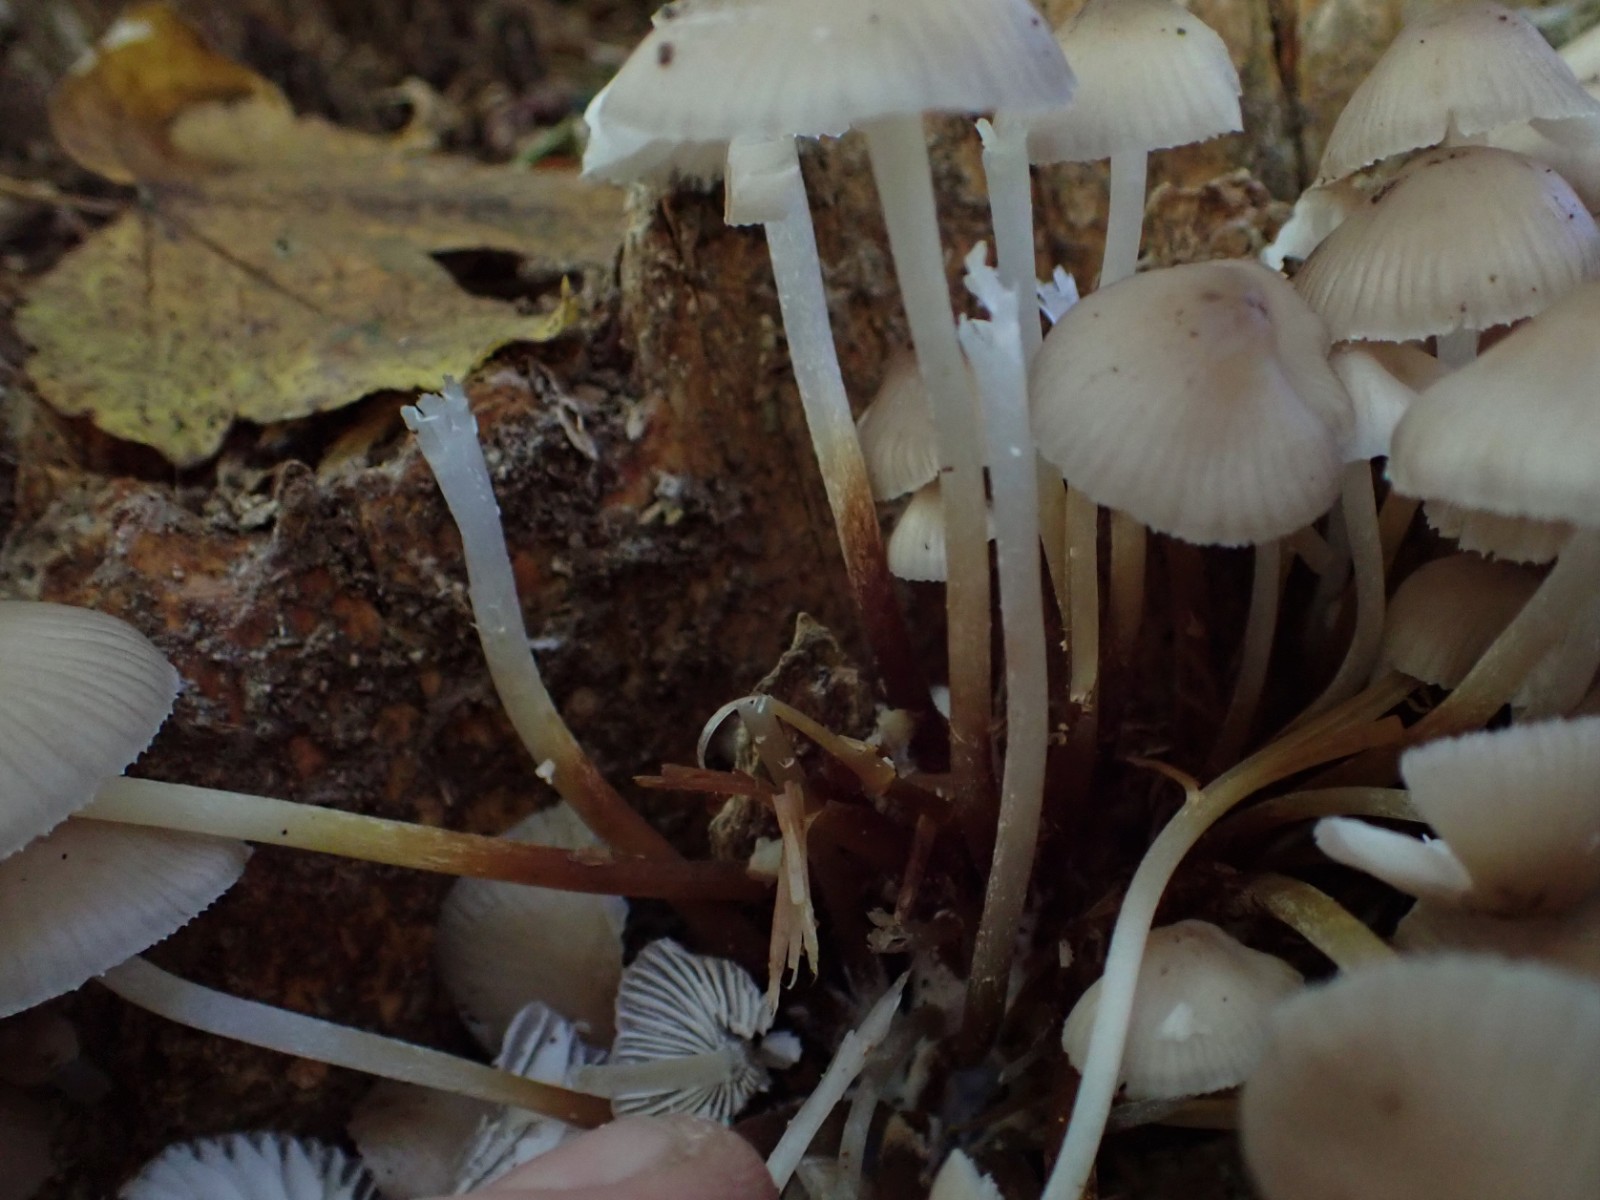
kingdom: Fungi
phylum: Basidiomycota
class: Agaricomycetes
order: Agaricales
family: Mycenaceae
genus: Mycena
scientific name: Mycena inclinata
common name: nikkende huesvamp
